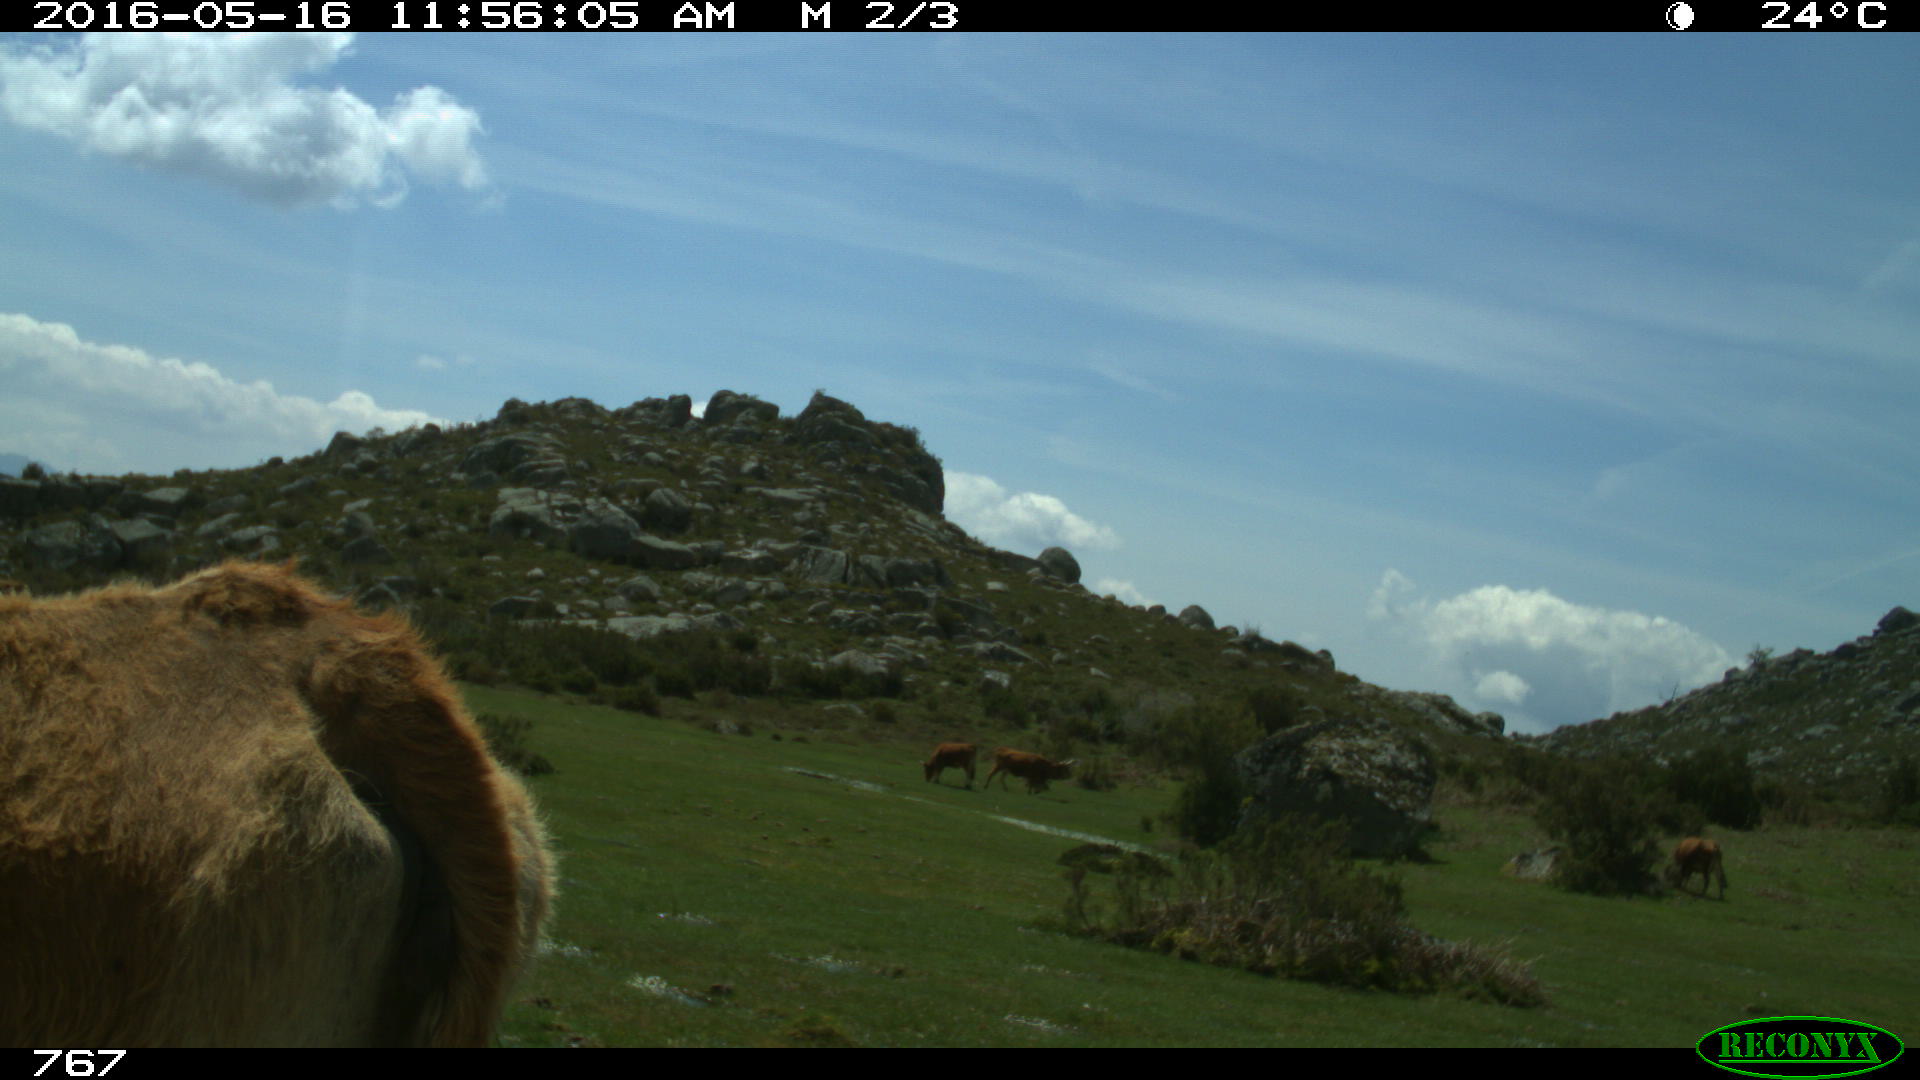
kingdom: Animalia
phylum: Chordata
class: Mammalia
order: Artiodactyla
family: Bovidae
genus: Bos
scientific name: Bos taurus
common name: Domesticated cattle
